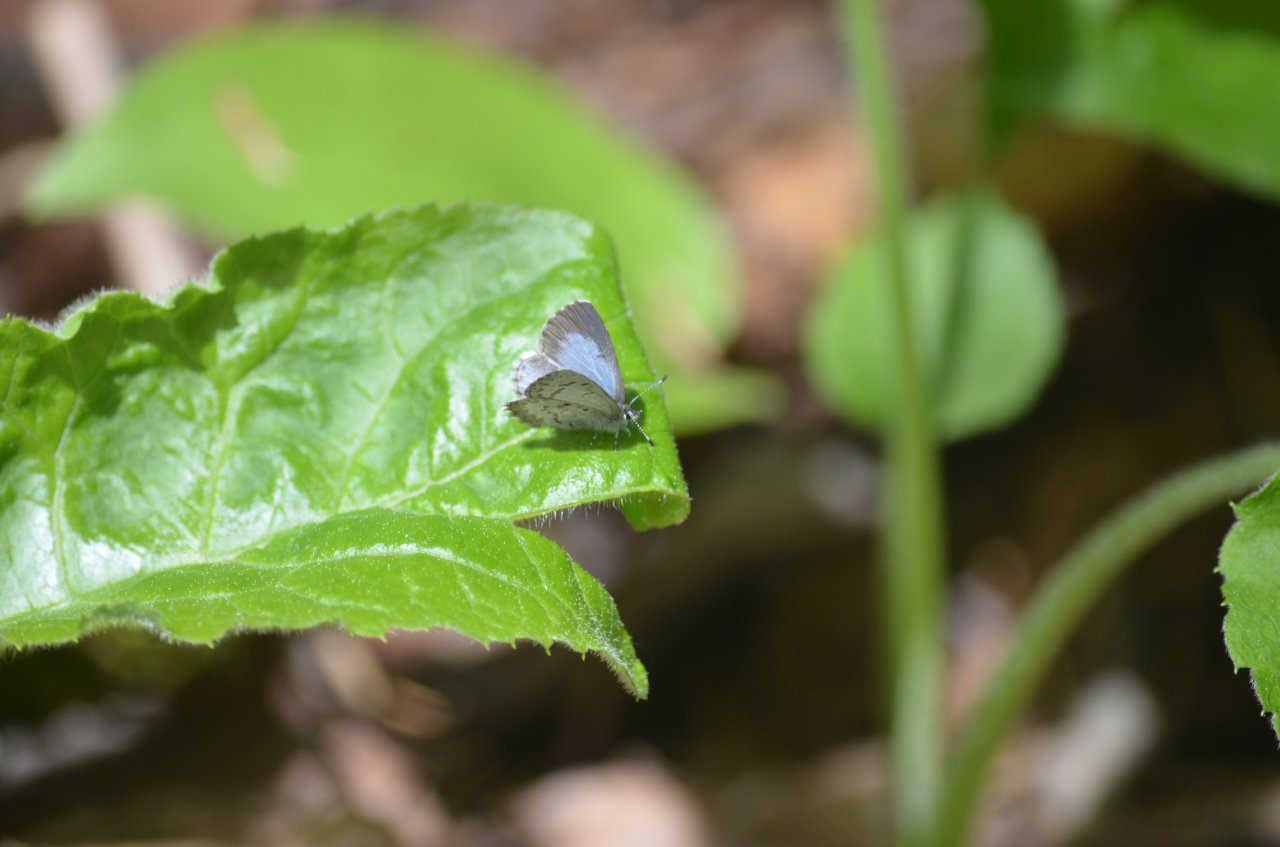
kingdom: Animalia
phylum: Arthropoda
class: Insecta
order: Lepidoptera
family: Lycaenidae
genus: Celastrina
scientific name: Celastrina
